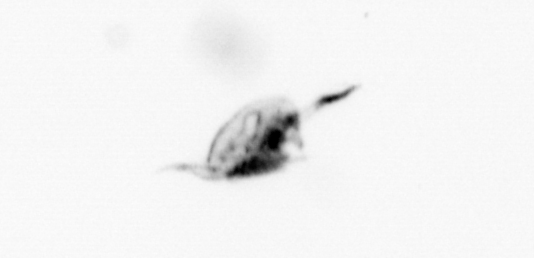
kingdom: Animalia
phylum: Arthropoda
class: Copepoda
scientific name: Copepoda
